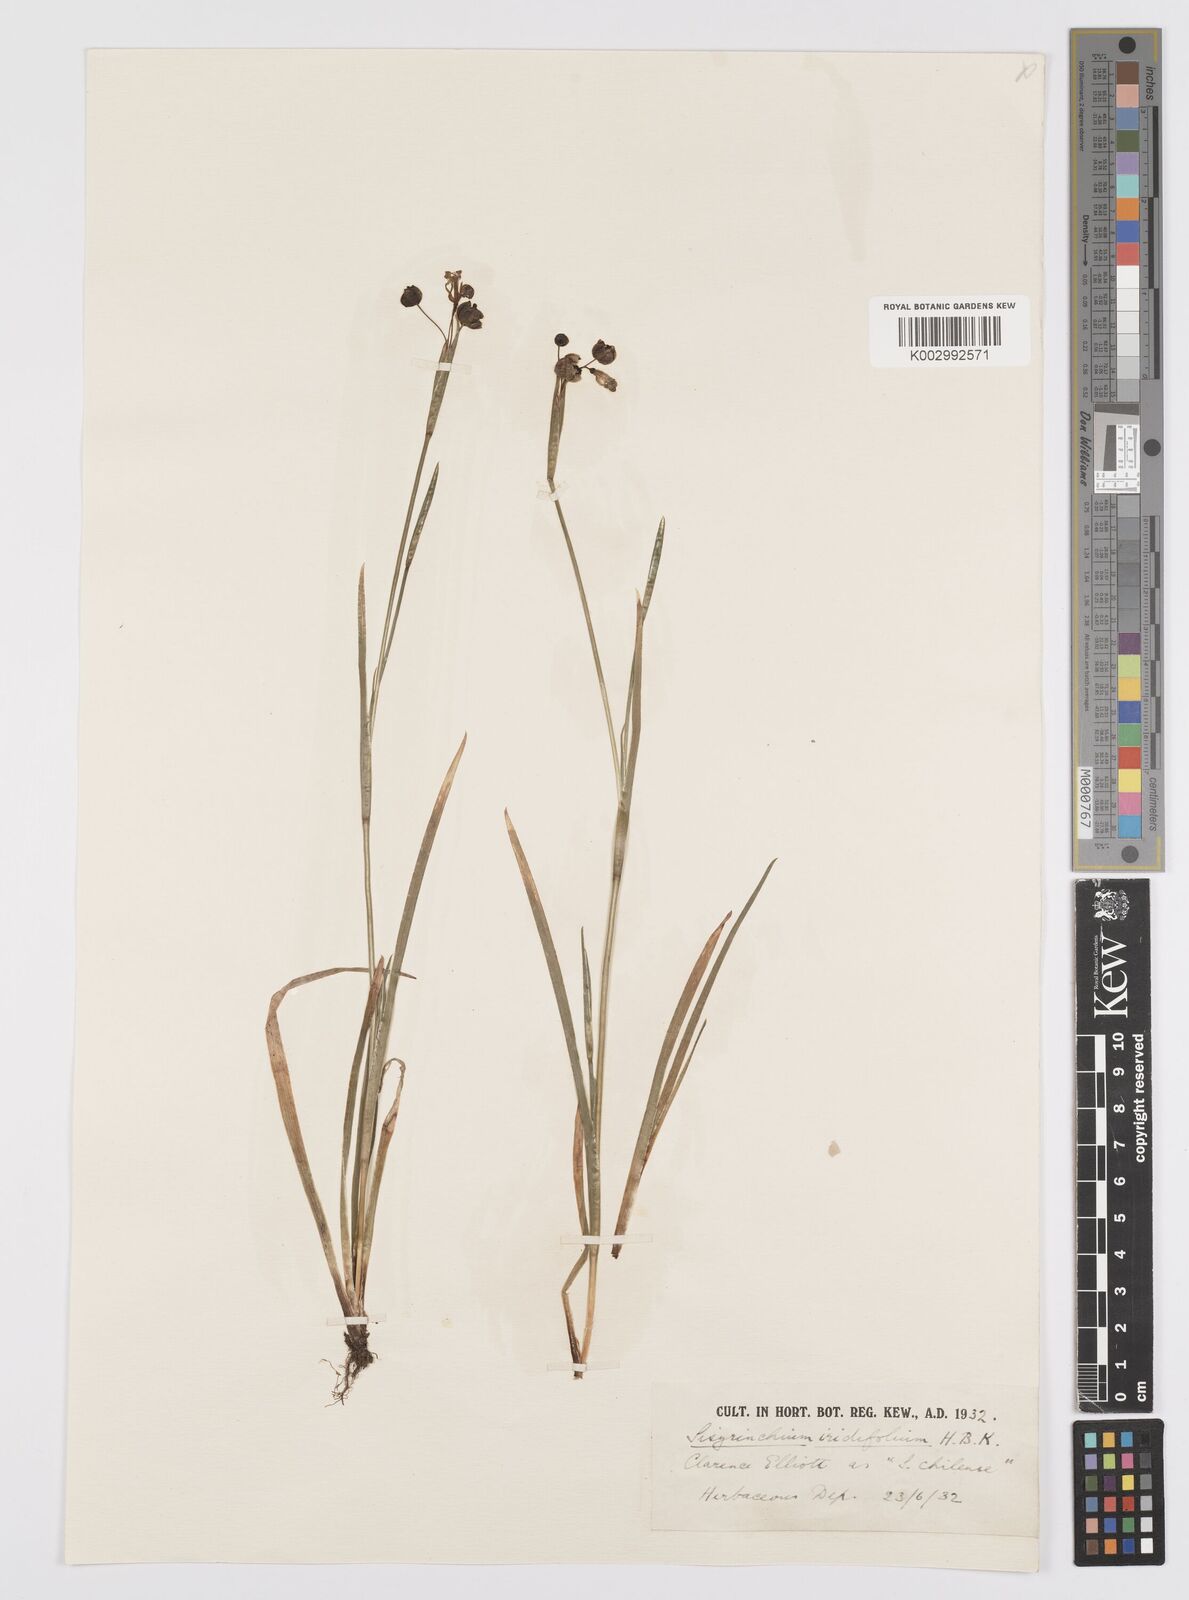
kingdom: Plantae
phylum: Tracheophyta
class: Liliopsida
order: Asparagales
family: Iridaceae
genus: Sisyrinchium
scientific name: Sisyrinchium micranthum
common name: Bermuda pigroot
